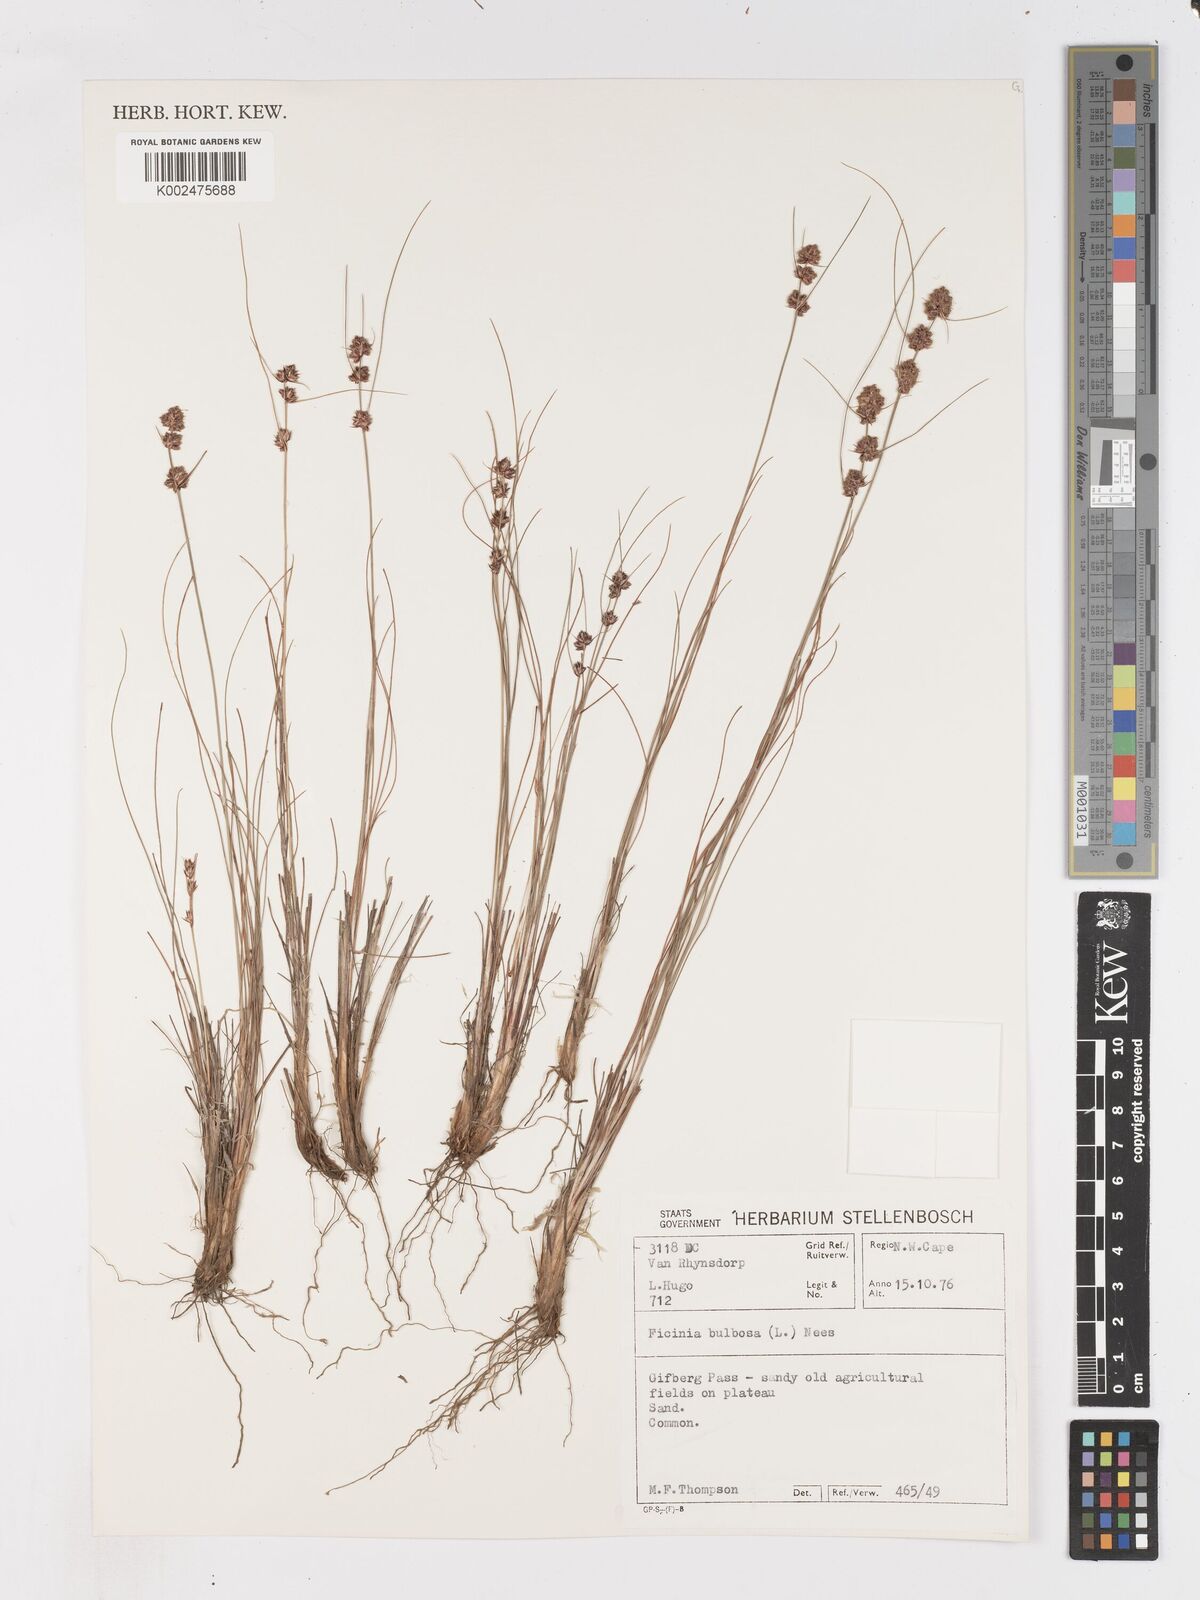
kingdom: Plantae
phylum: Tracheophyta
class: Liliopsida
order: Poales
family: Cyperaceae
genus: Ficinia
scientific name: Ficinia bulbosa
